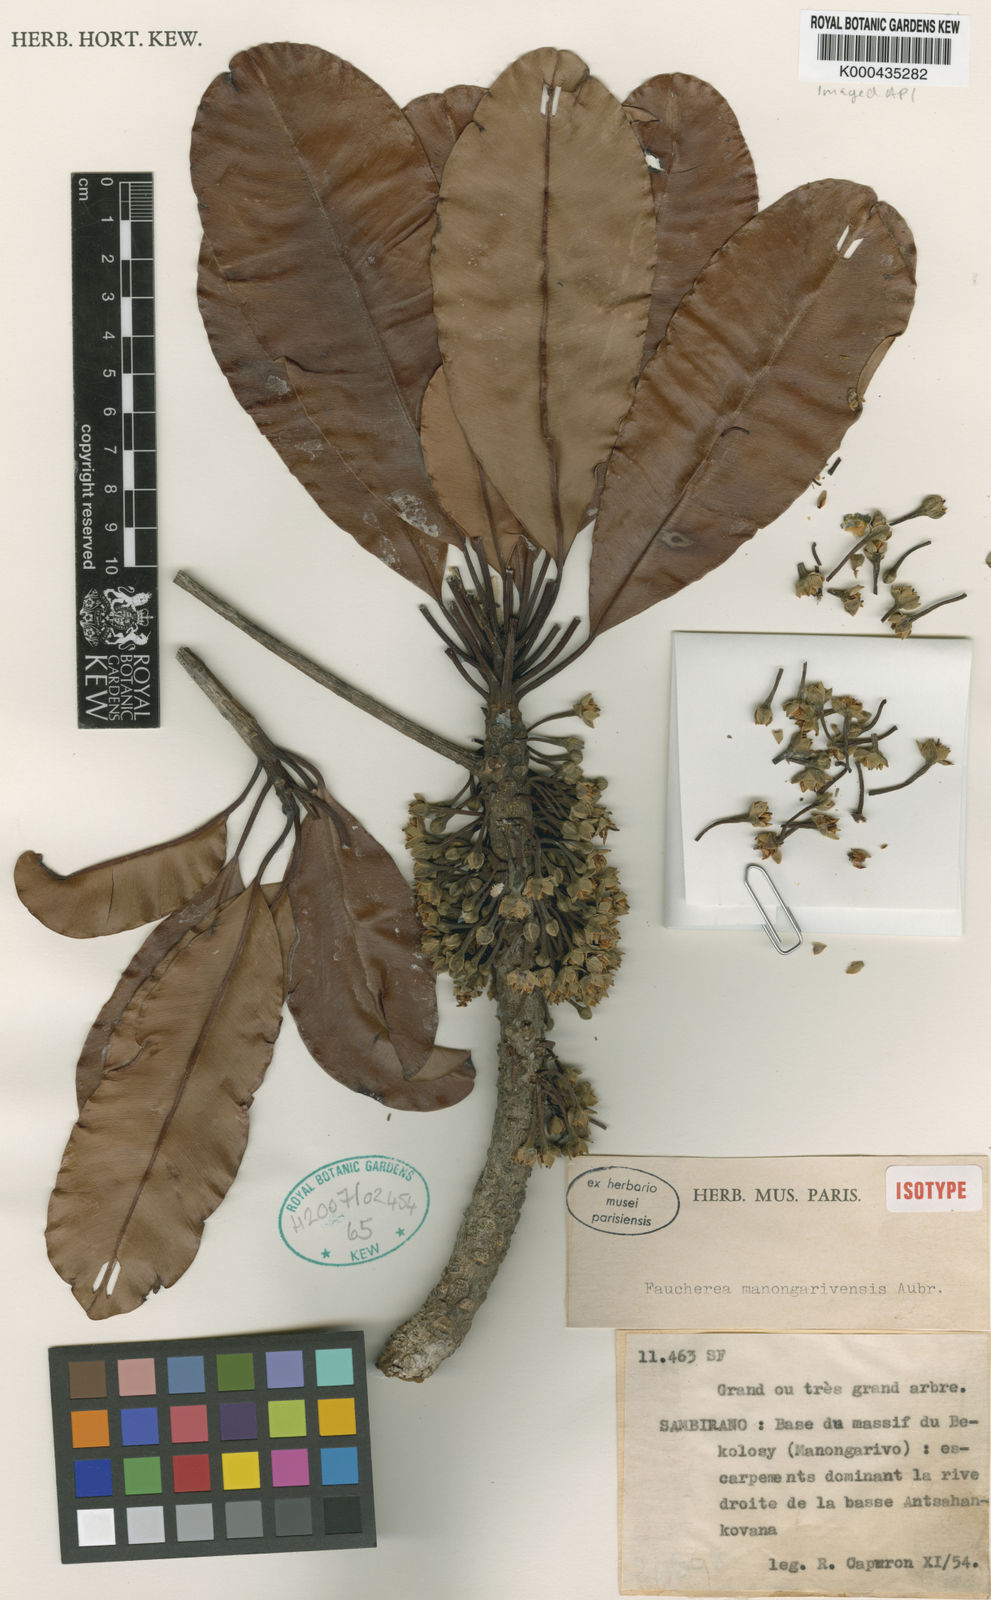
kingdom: Plantae
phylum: Tracheophyta
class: Magnoliopsida
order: Ericales
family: Sapotaceae
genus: Faucherea
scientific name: Faucherea manongarivensis
